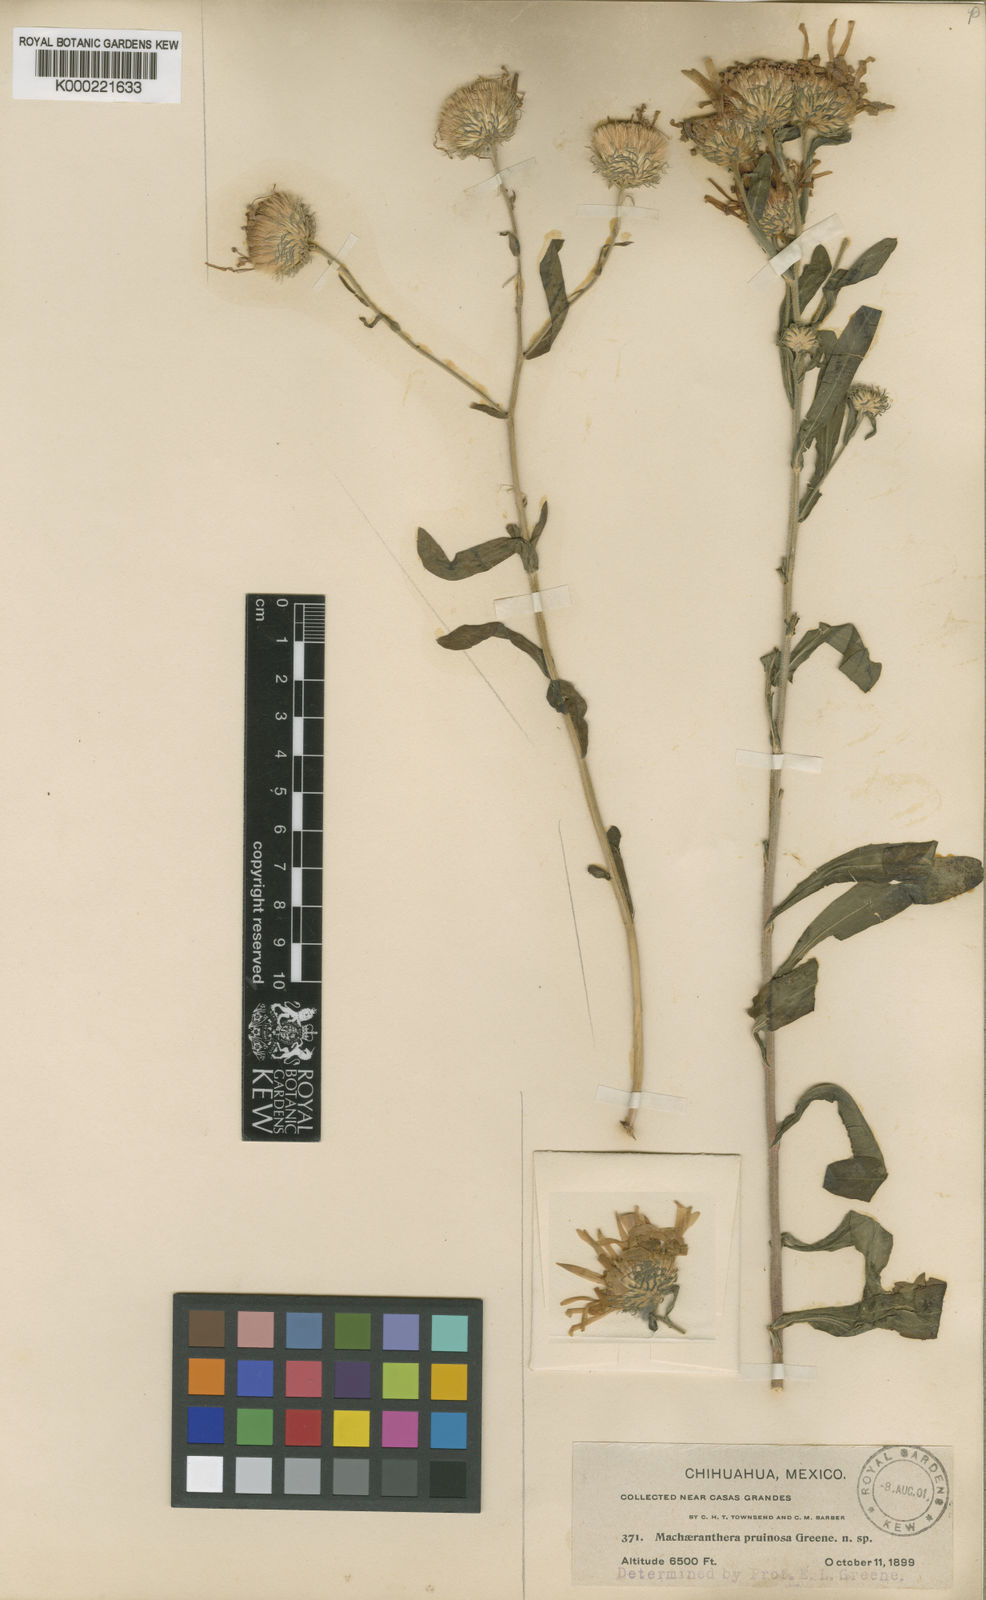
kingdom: Plantae
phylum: Tracheophyta
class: Magnoliopsida
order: Asterales
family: Asteraceae
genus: Aster
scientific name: Aster
